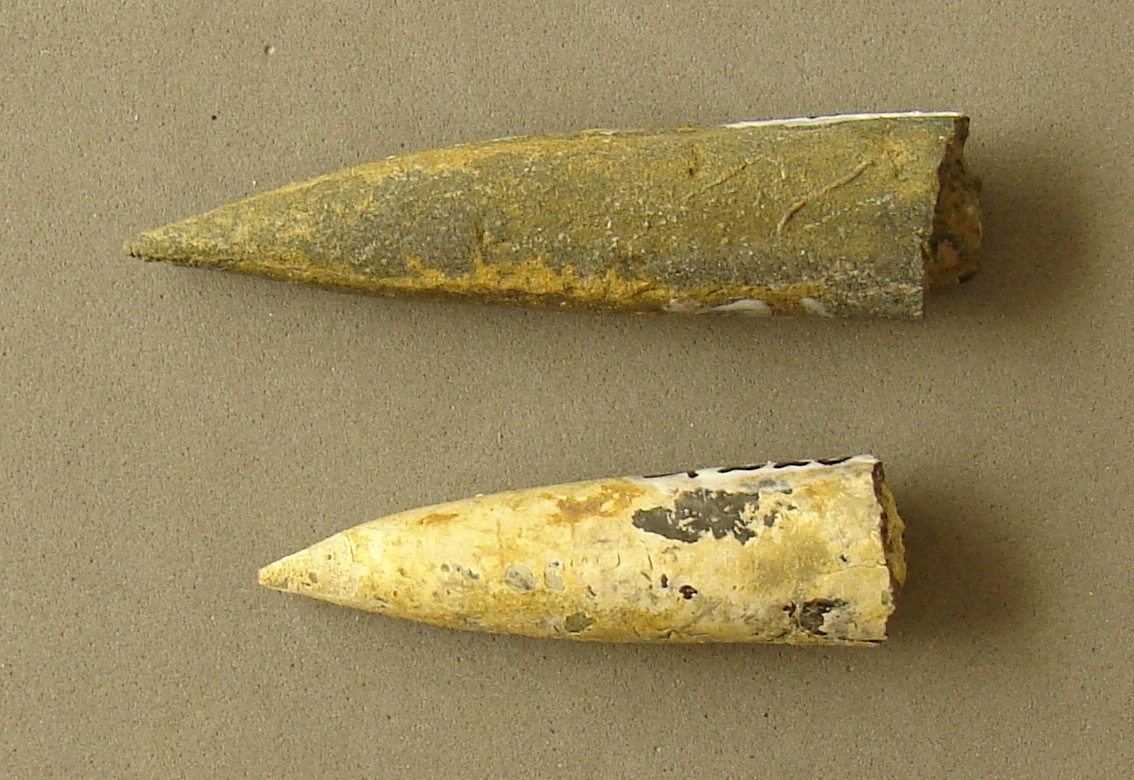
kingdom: Animalia
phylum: Mollusca
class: Cephalopoda
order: Belemnitida
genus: Nannobelus
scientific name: Nannobelus
